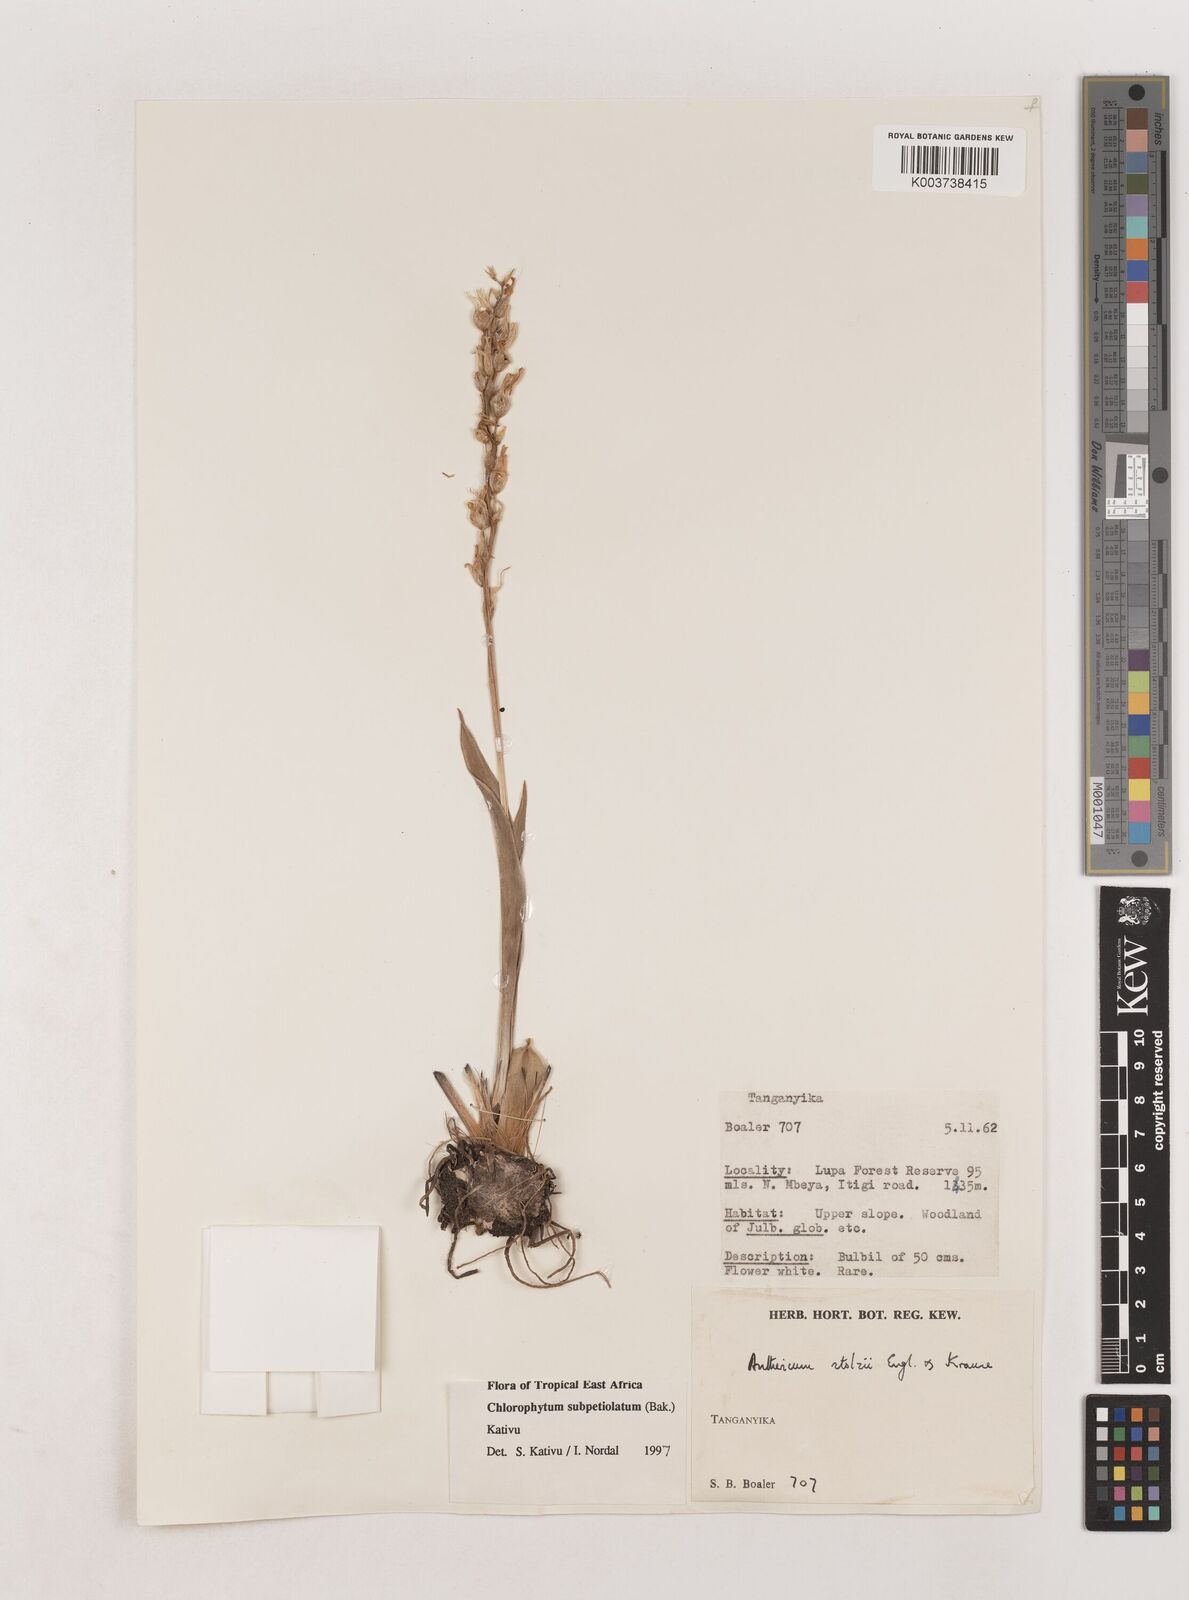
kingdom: Plantae
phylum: Tracheophyta
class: Liliopsida
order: Asparagales
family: Asparagaceae
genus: Chlorophytum
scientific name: Chlorophytum subpetiolatum
